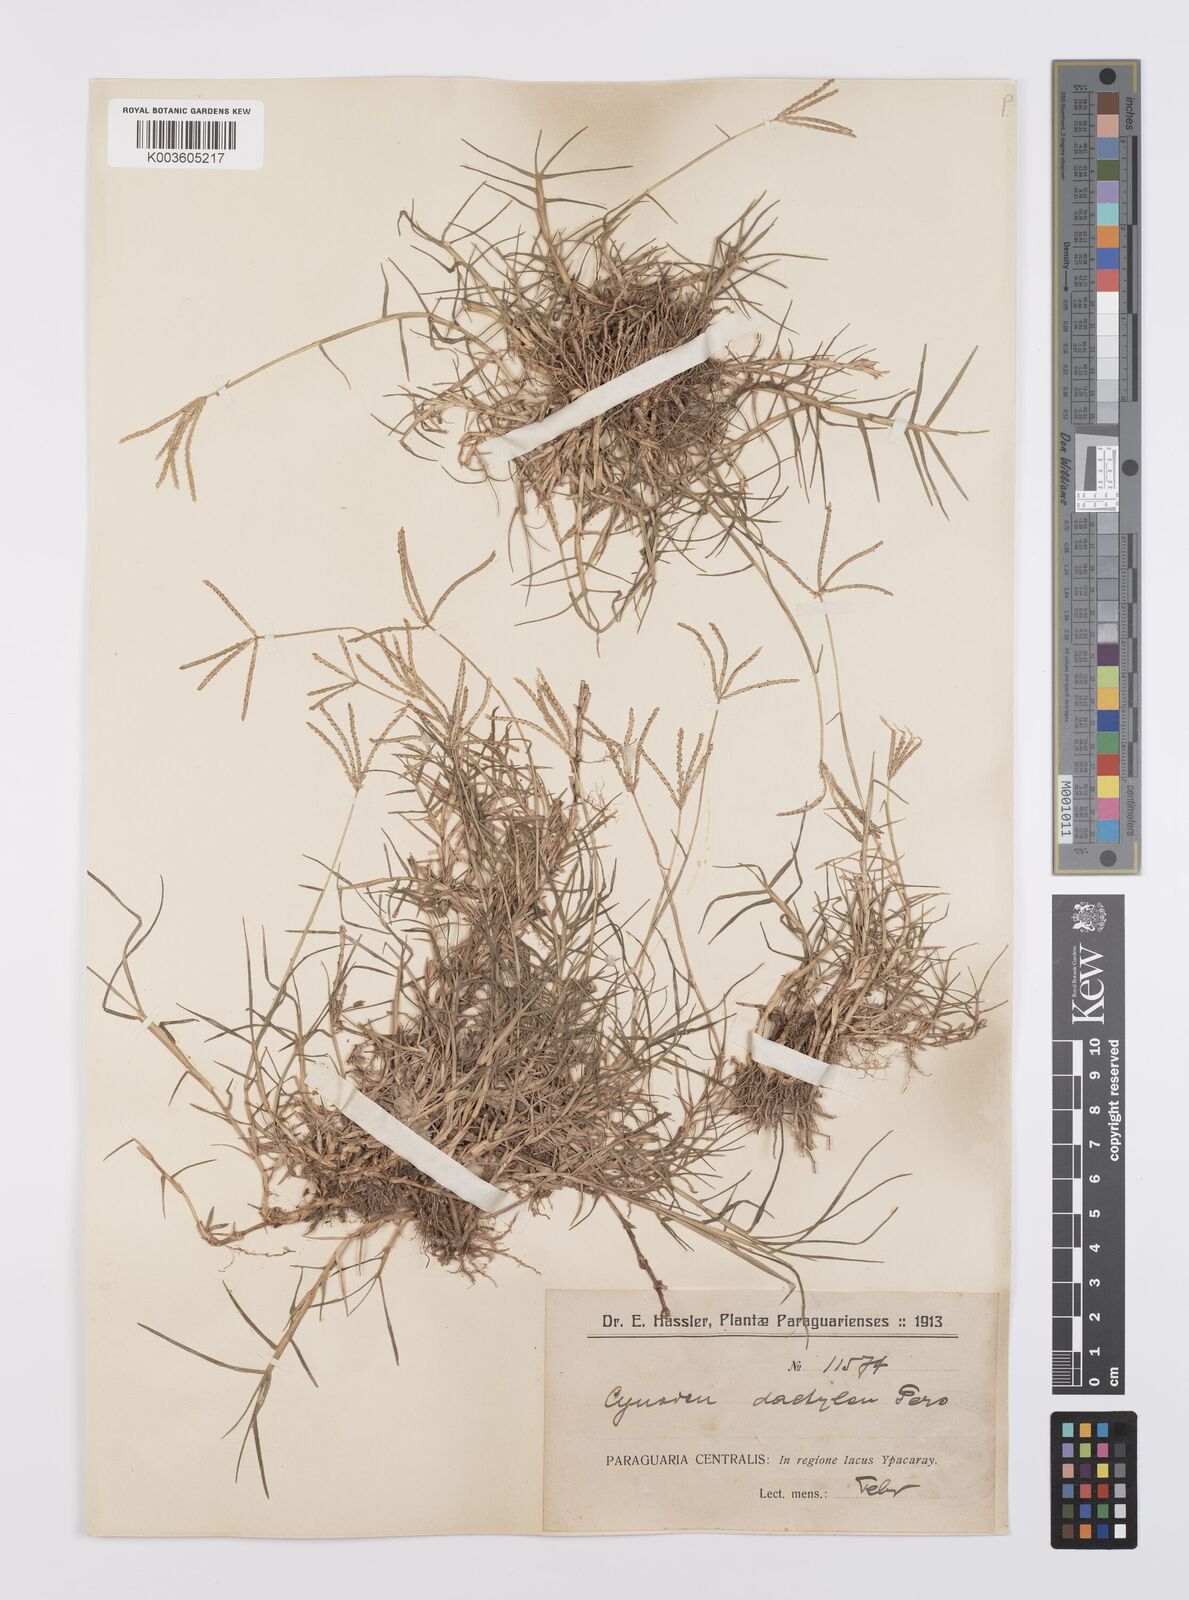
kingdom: Plantae
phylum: Tracheophyta
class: Liliopsida
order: Poales
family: Poaceae
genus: Cynodon
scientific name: Cynodon dactylon
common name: Bermuda grass
